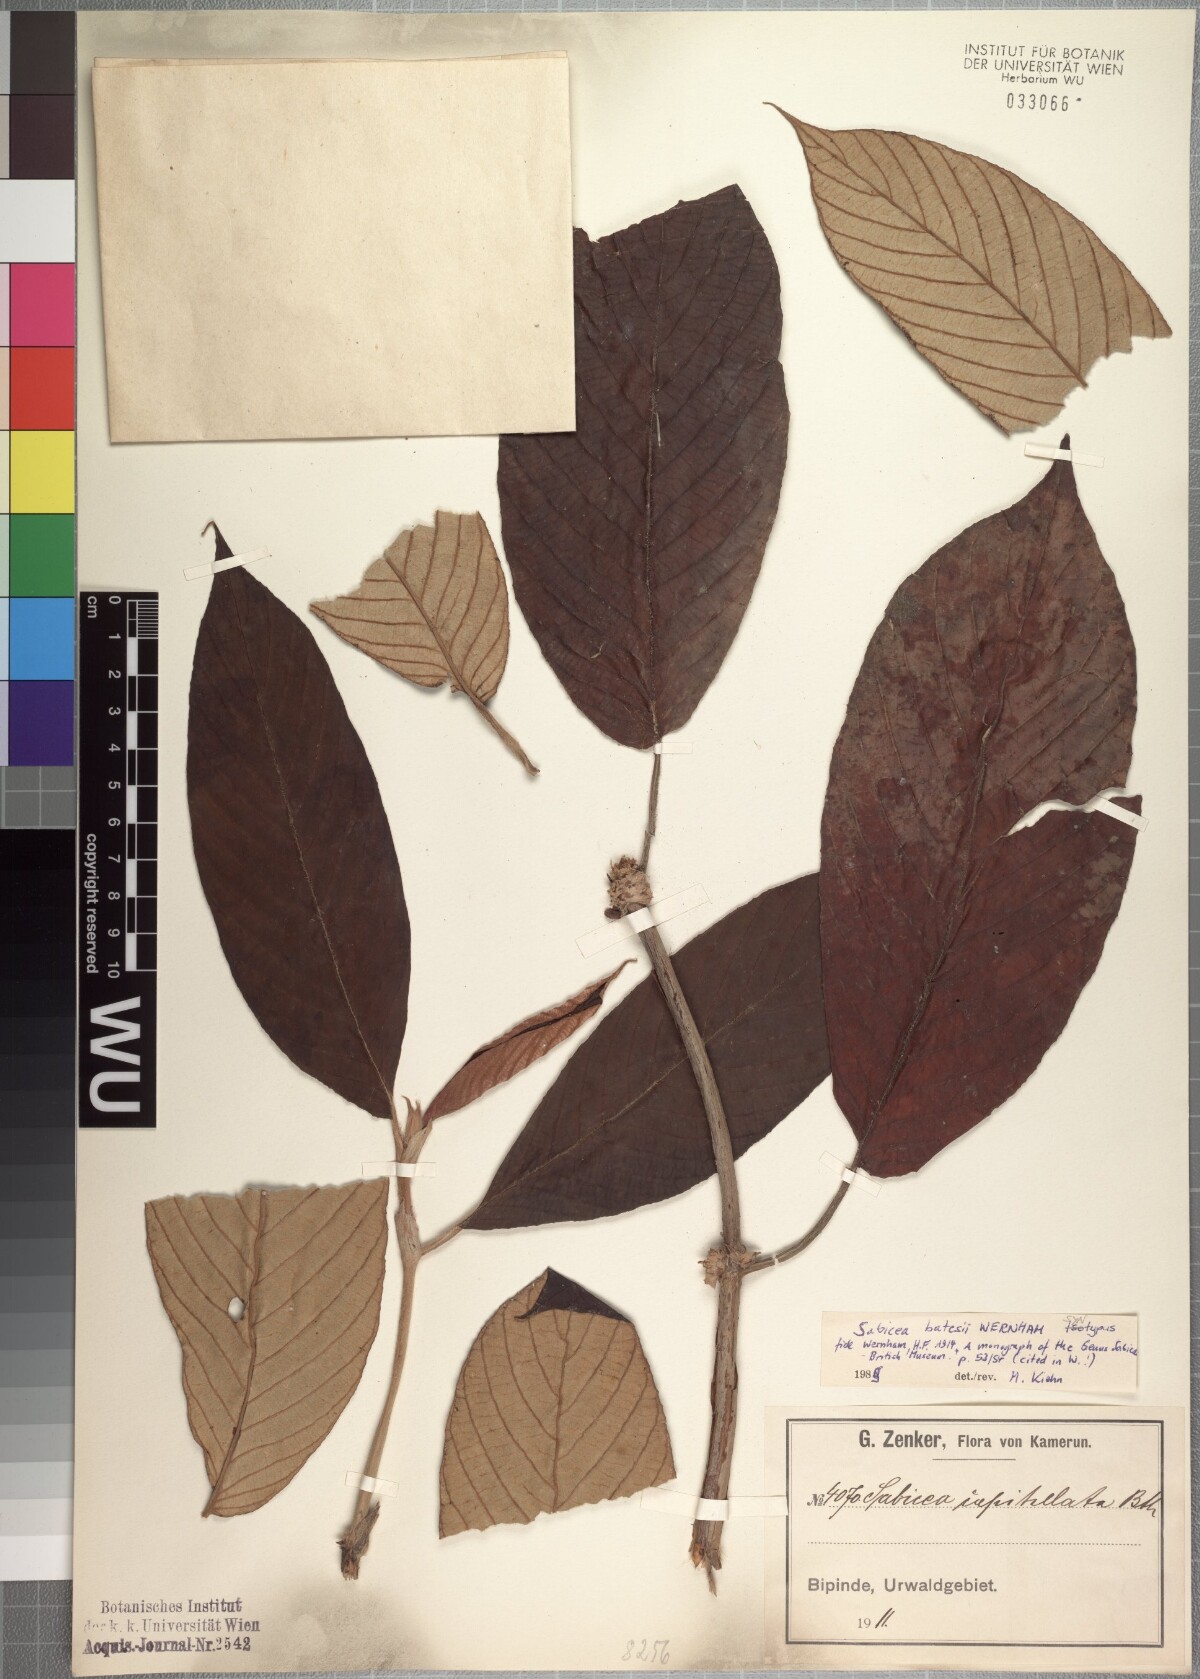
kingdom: Plantae
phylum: Tracheophyta
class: Magnoliopsida
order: Gentianales
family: Rubiaceae
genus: Sabicea
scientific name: Sabicea batesii
